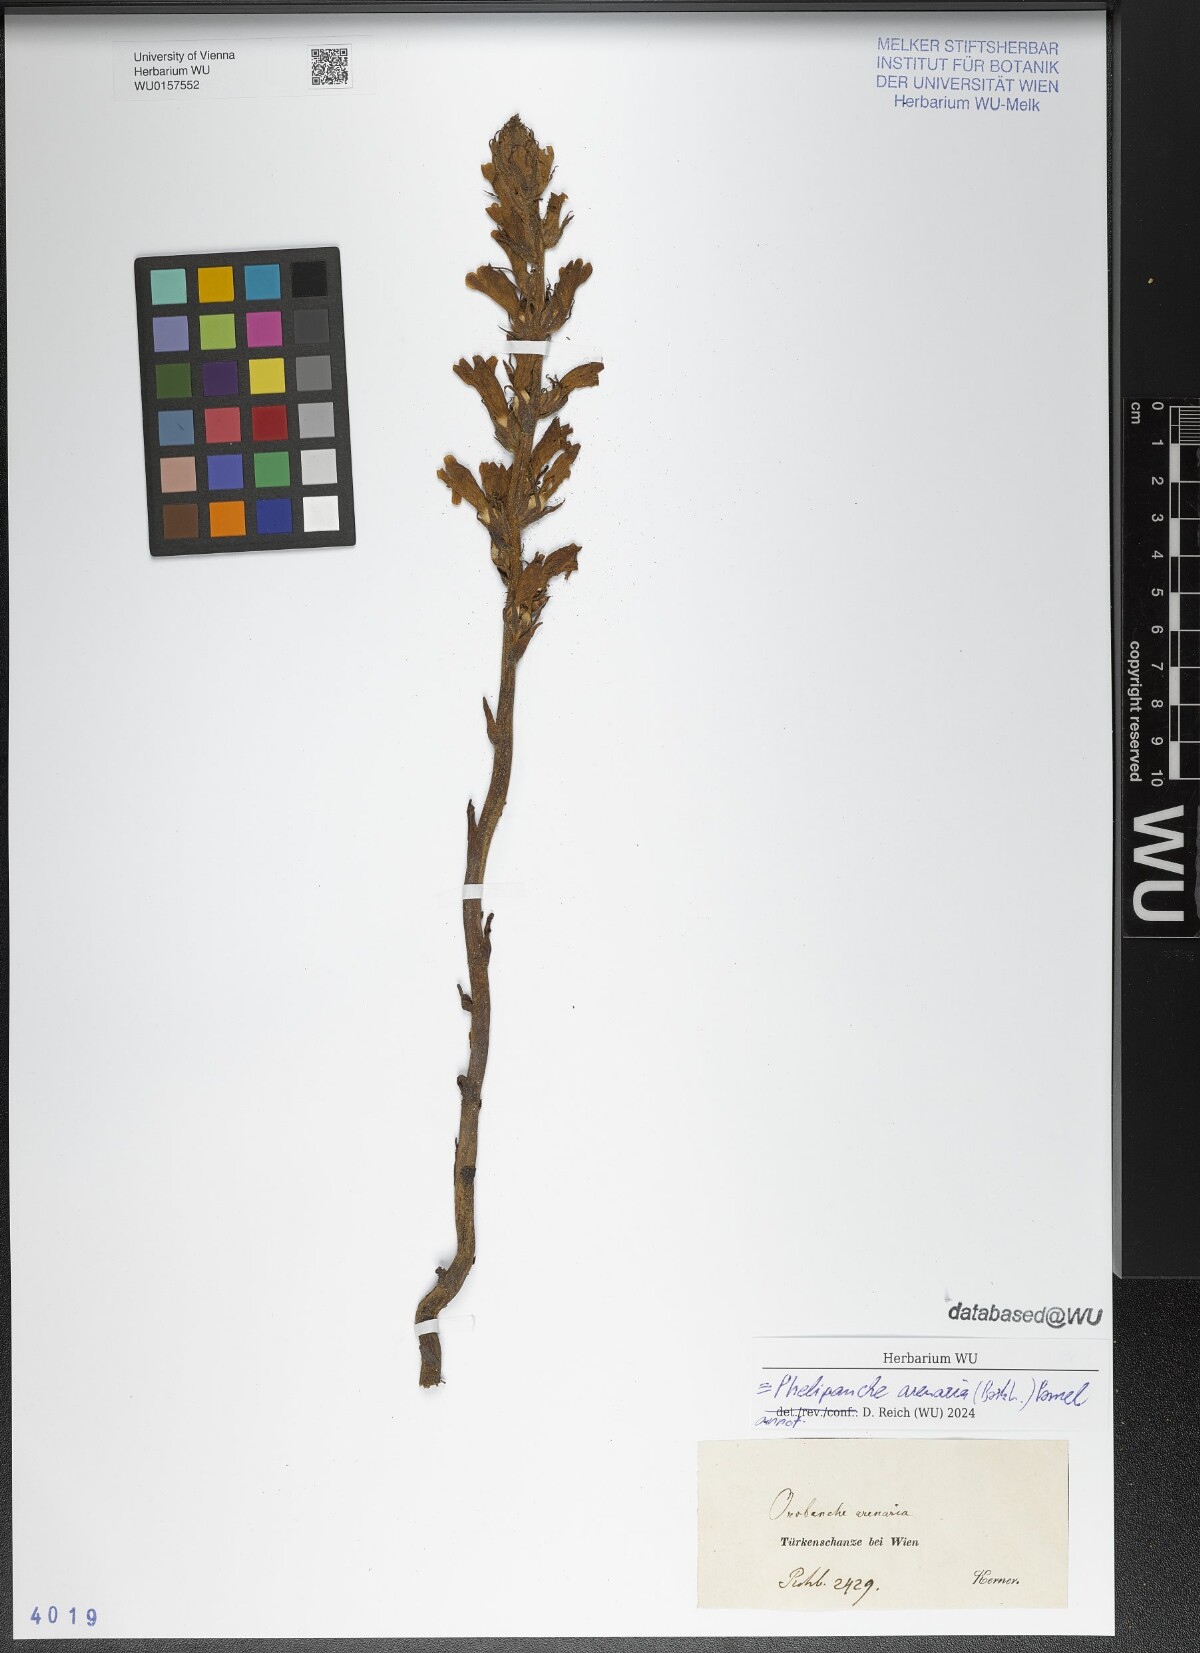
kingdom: Plantae
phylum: Tracheophyta
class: Magnoliopsida
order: Lamiales
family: Orobanchaceae
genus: Phelipanche
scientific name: Phelipanche arenaria
